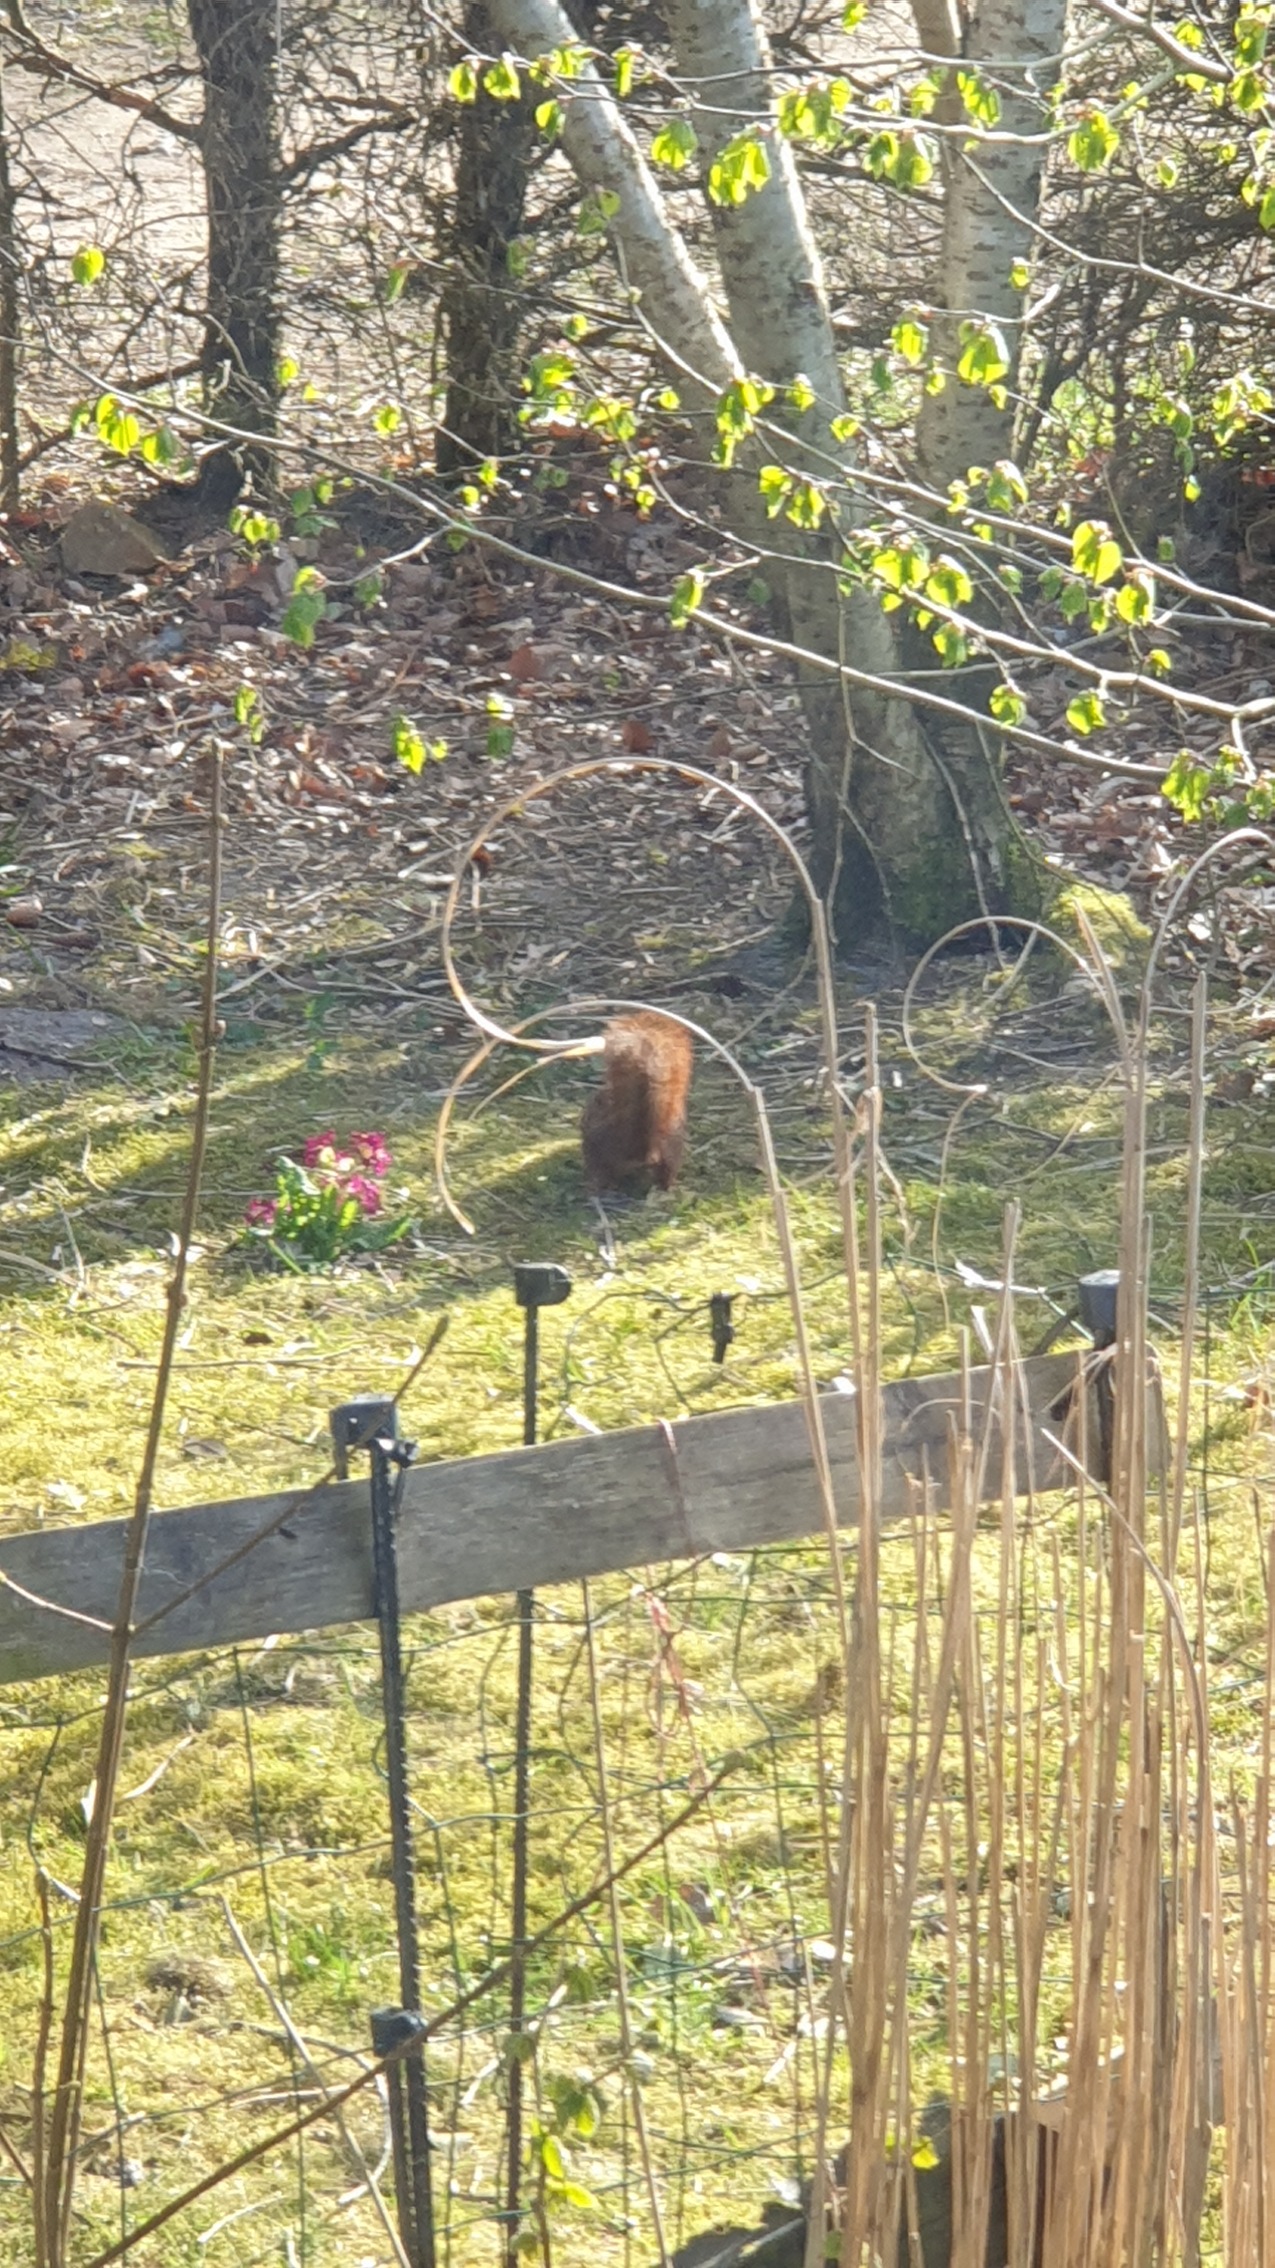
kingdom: Animalia
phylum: Chordata
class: Mammalia
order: Rodentia
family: Sciuridae
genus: Sciurus
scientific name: Sciurus vulgaris
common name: Egern
